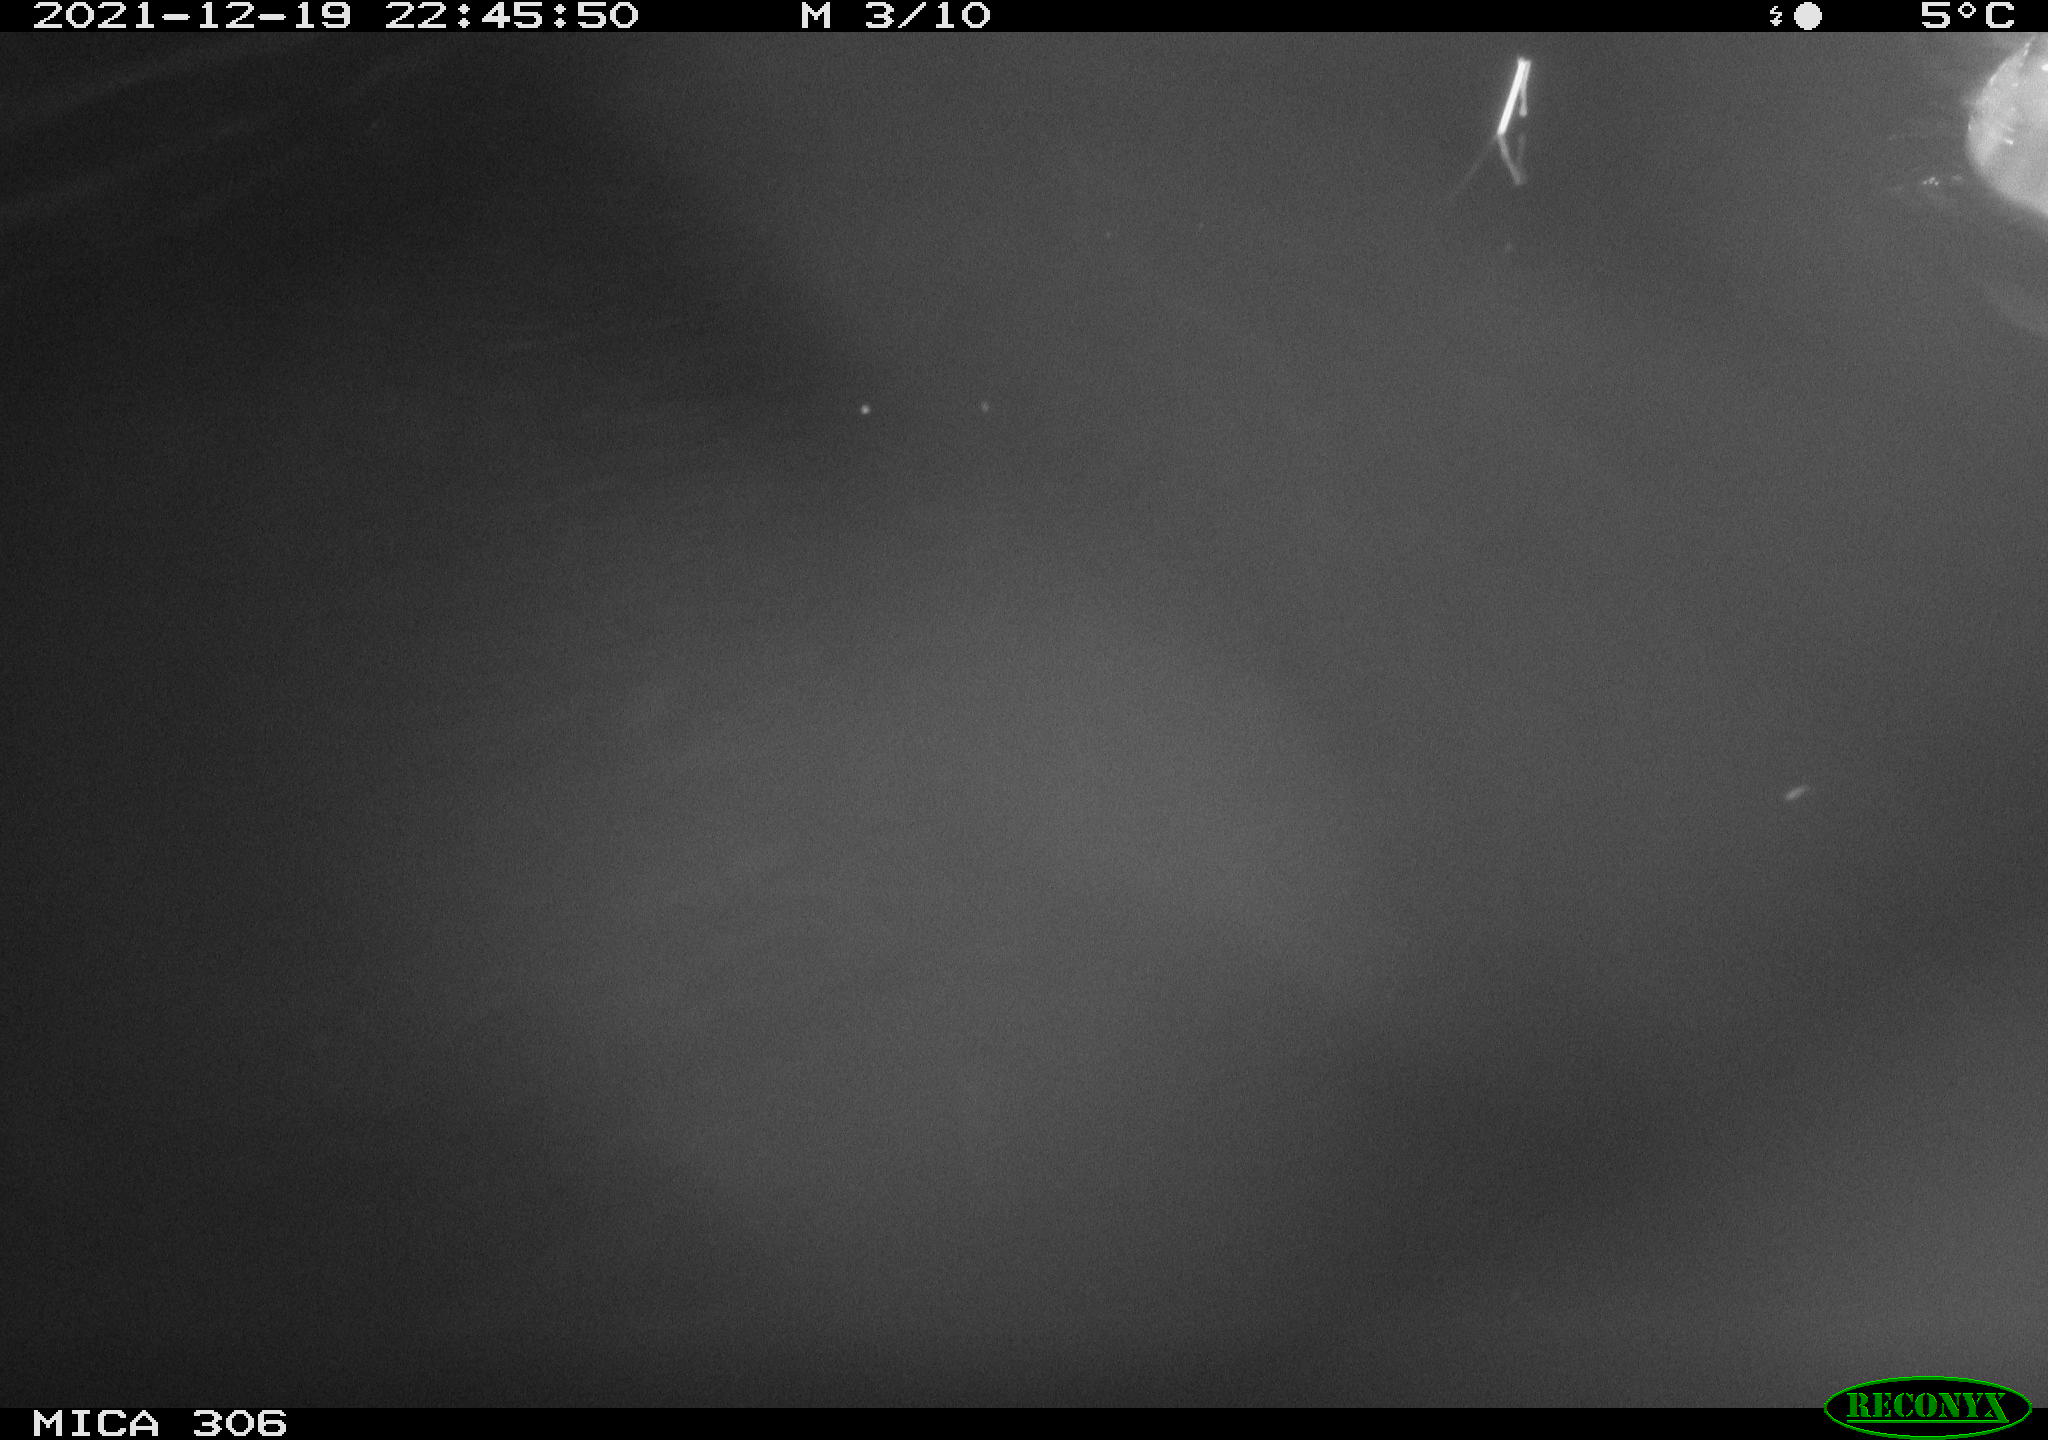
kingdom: Animalia
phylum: Chordata
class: Mammalia
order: Rodentia
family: Cricetidae
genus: Ondatra
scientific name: Ondatra zibethicus
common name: Muskrat
